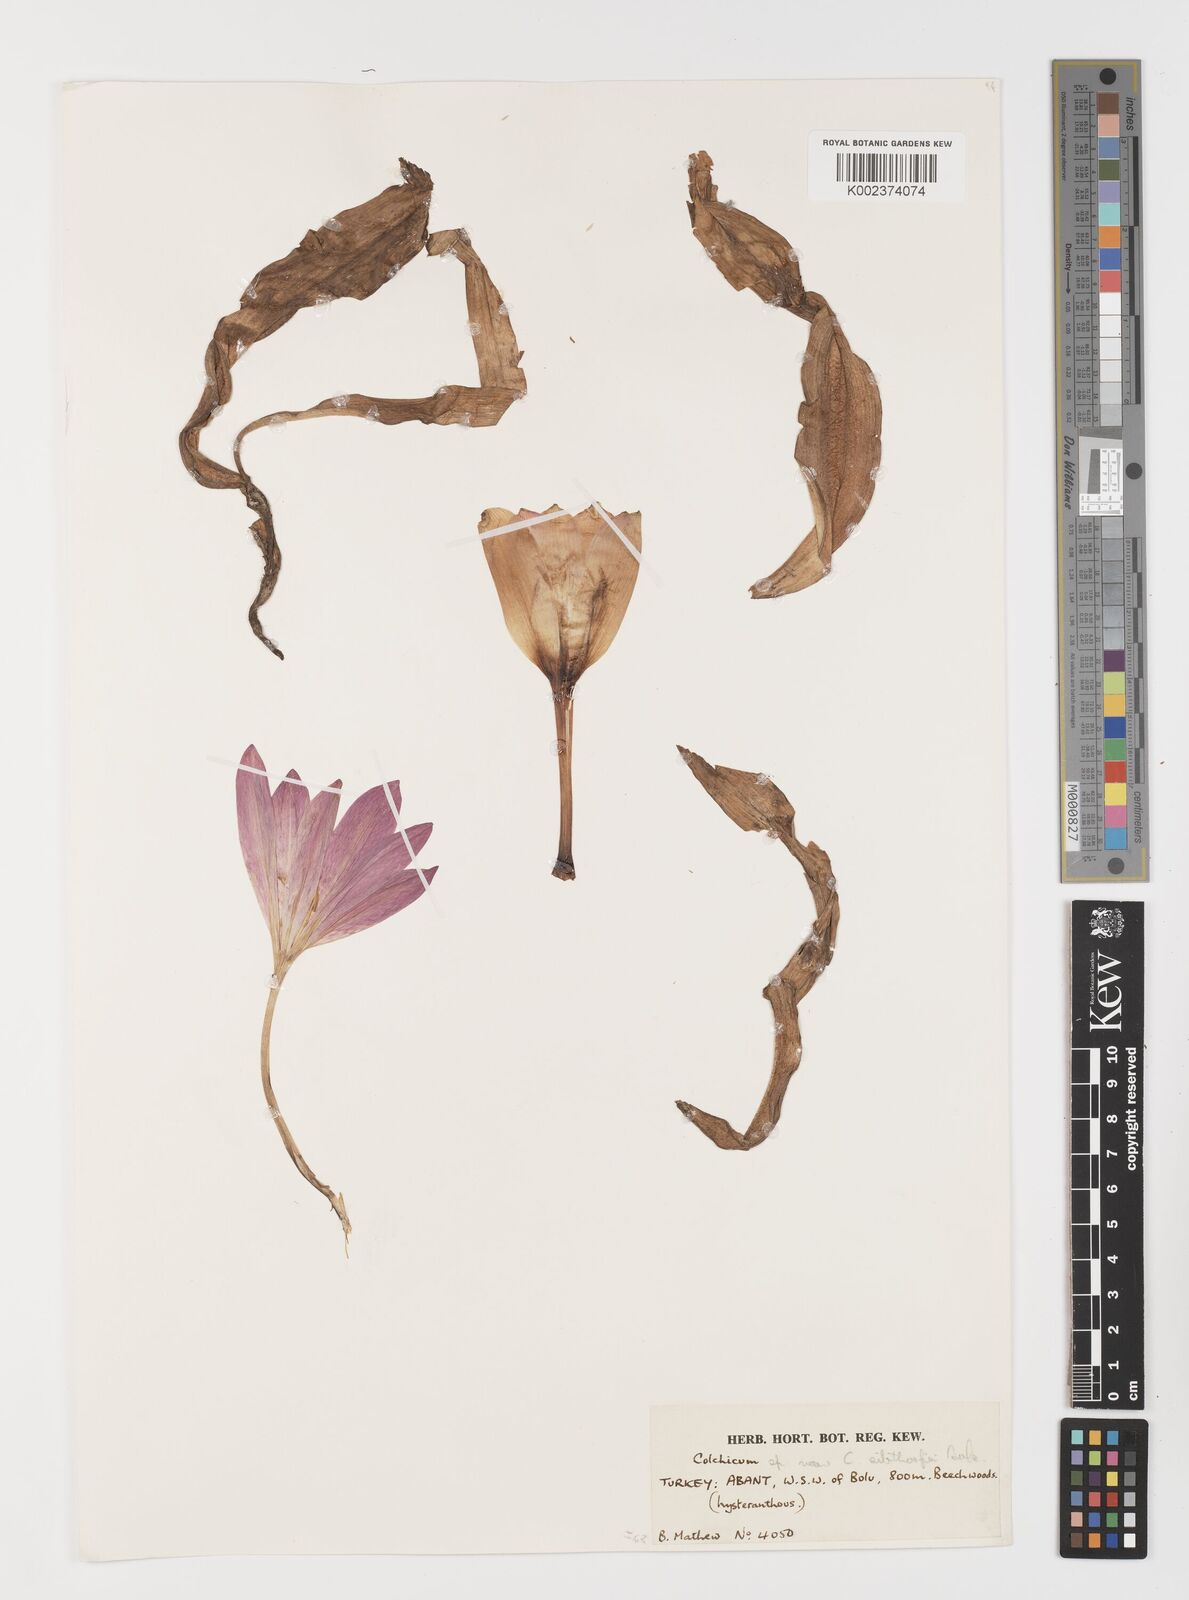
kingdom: Plantae
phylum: Tracheophyta
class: Liliopsida
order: Liliales
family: Colchicaceae
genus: Colchicum
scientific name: Colchicum bivonae
